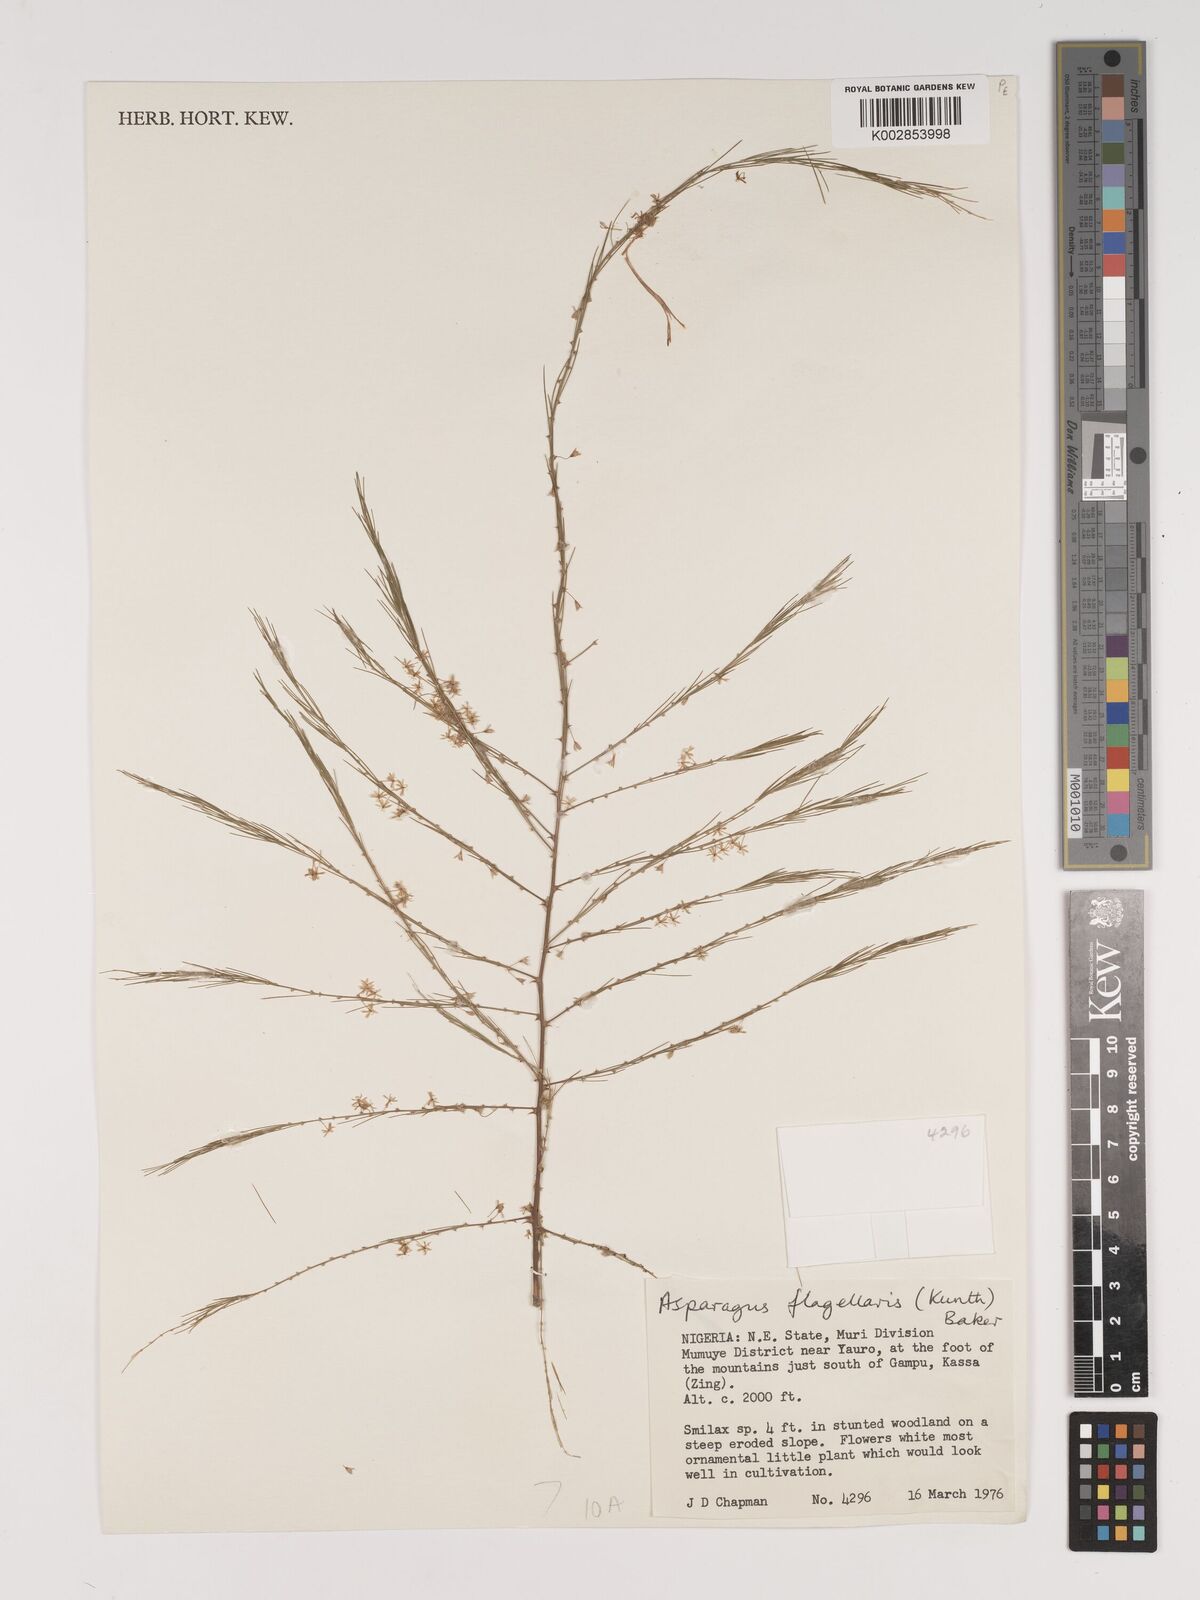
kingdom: Plantae
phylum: Tracheophyta
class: Liliopsida
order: Asparagales
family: Asparagaceae
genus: Asparagus
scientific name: Asparagus flagellaris
